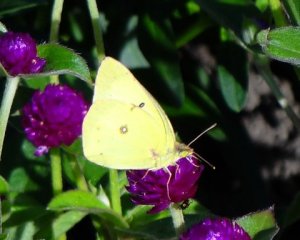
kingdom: Animalia
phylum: Arthropoda
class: Insecta
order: Lepidoptera
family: Pieridae
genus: Colias
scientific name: Colias philodice
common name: Clouded Sulphur
